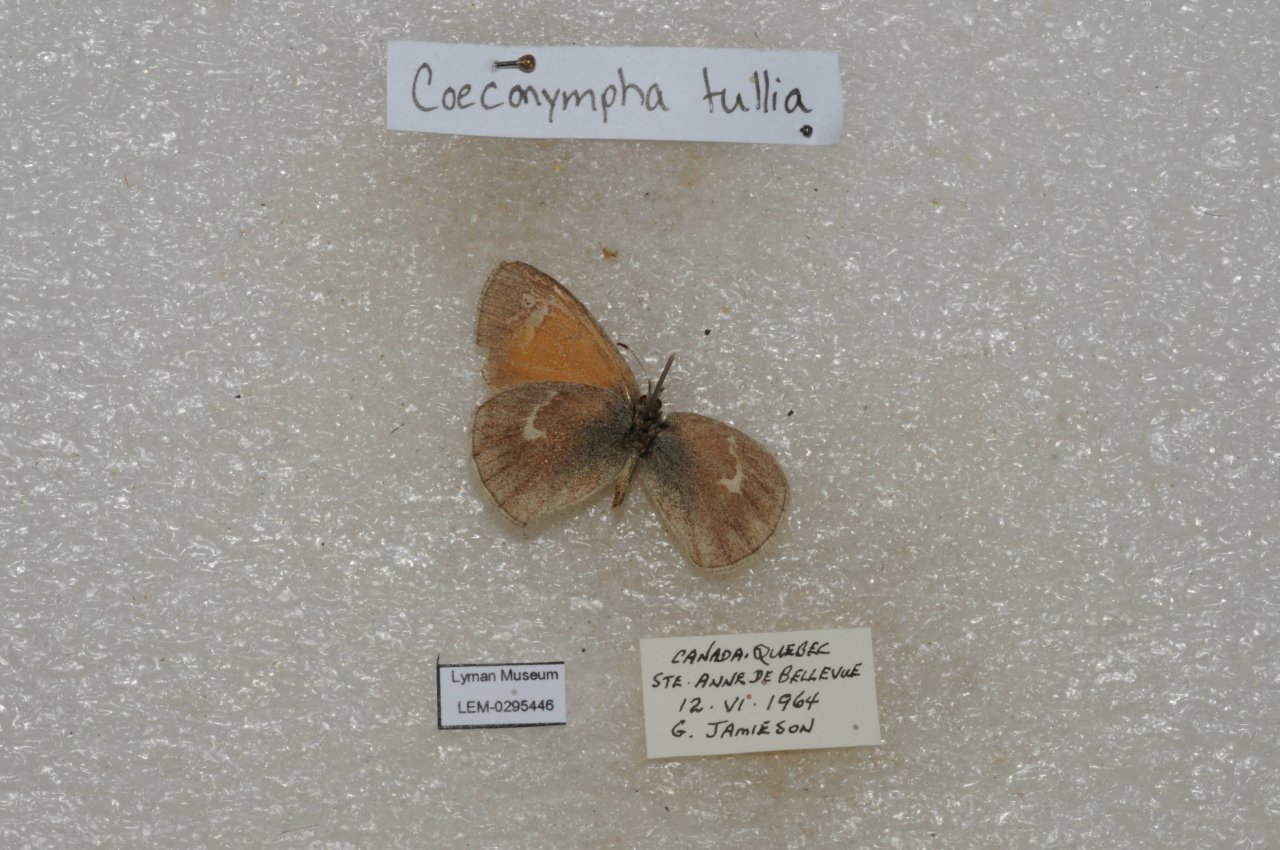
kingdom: Animalia
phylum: Arthropoda
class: Insecta
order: Lepidoptera
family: Nymphalidae
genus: Coenonympha
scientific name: Coenonympha tullia
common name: Large Heath
